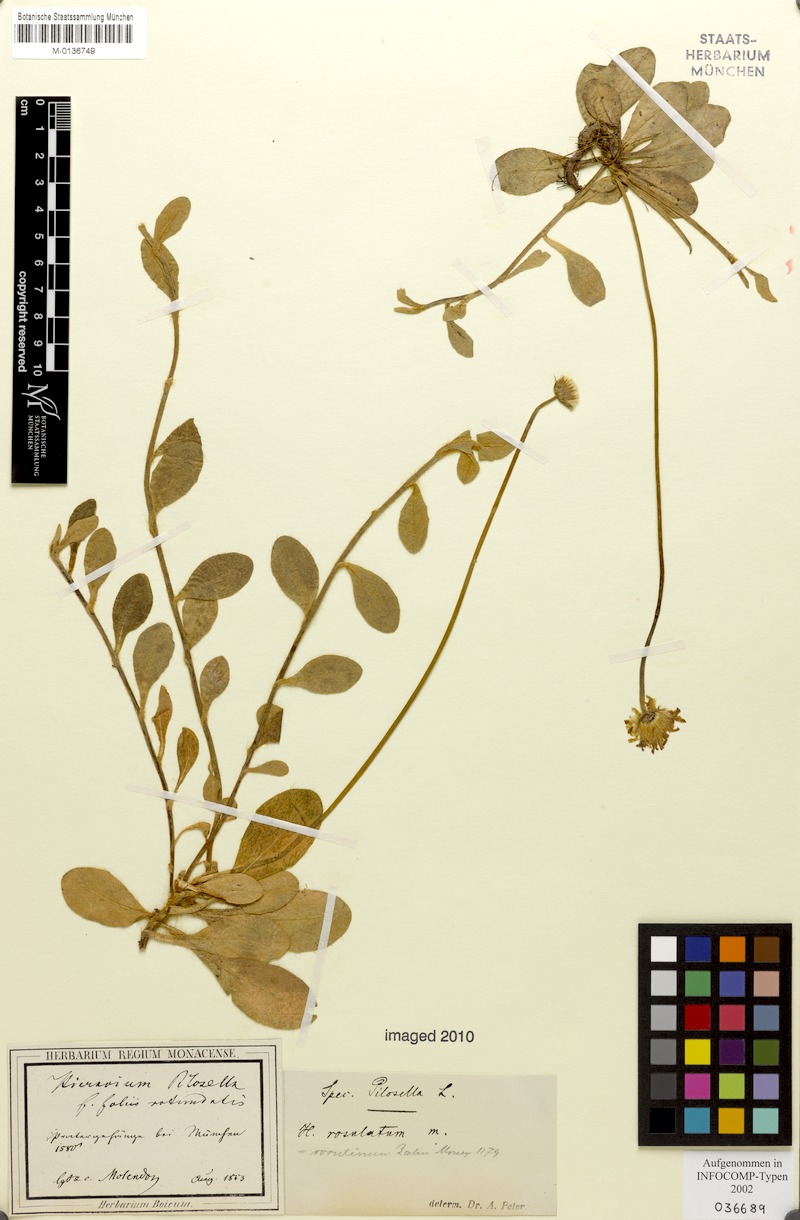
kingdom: Plantae
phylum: Tracheophyta
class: Magnoliopsida
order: Asterales
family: Asteraceae
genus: Pilosella
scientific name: Pilosella officinarum
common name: Mouse-ear hawkweed
